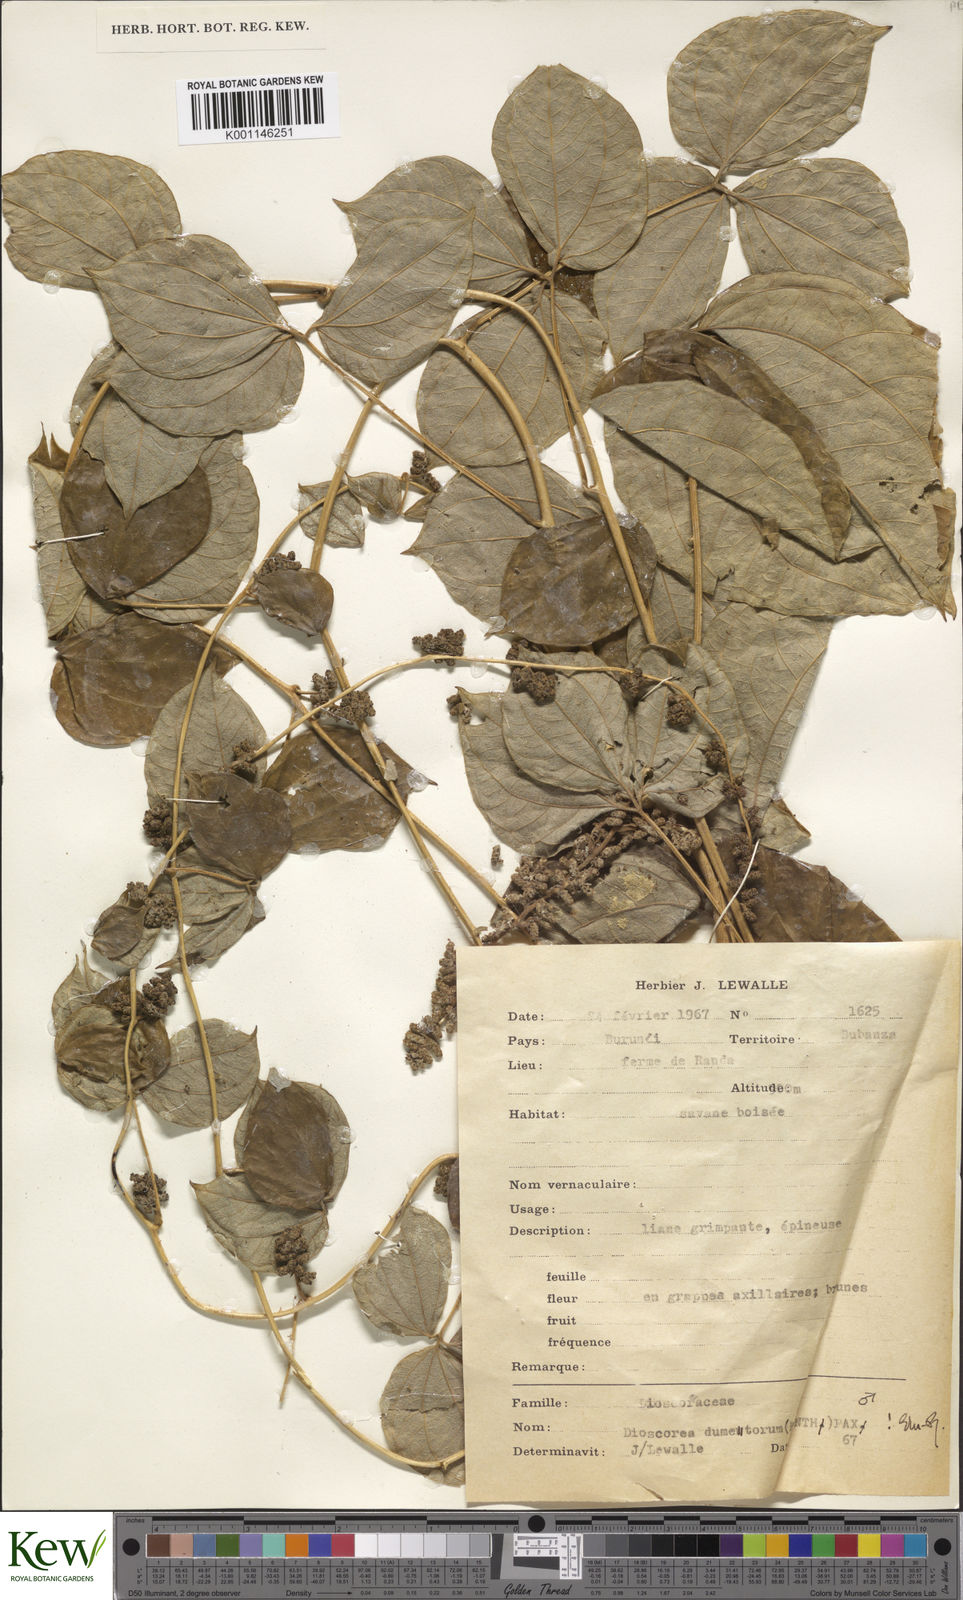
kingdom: Plantae
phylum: Tracheophyta
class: Liliopsida
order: Dioscoreales
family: Dioscoreaceae
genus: Dioscorea
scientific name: Dioscorea dumetorum
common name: African bitter yam
